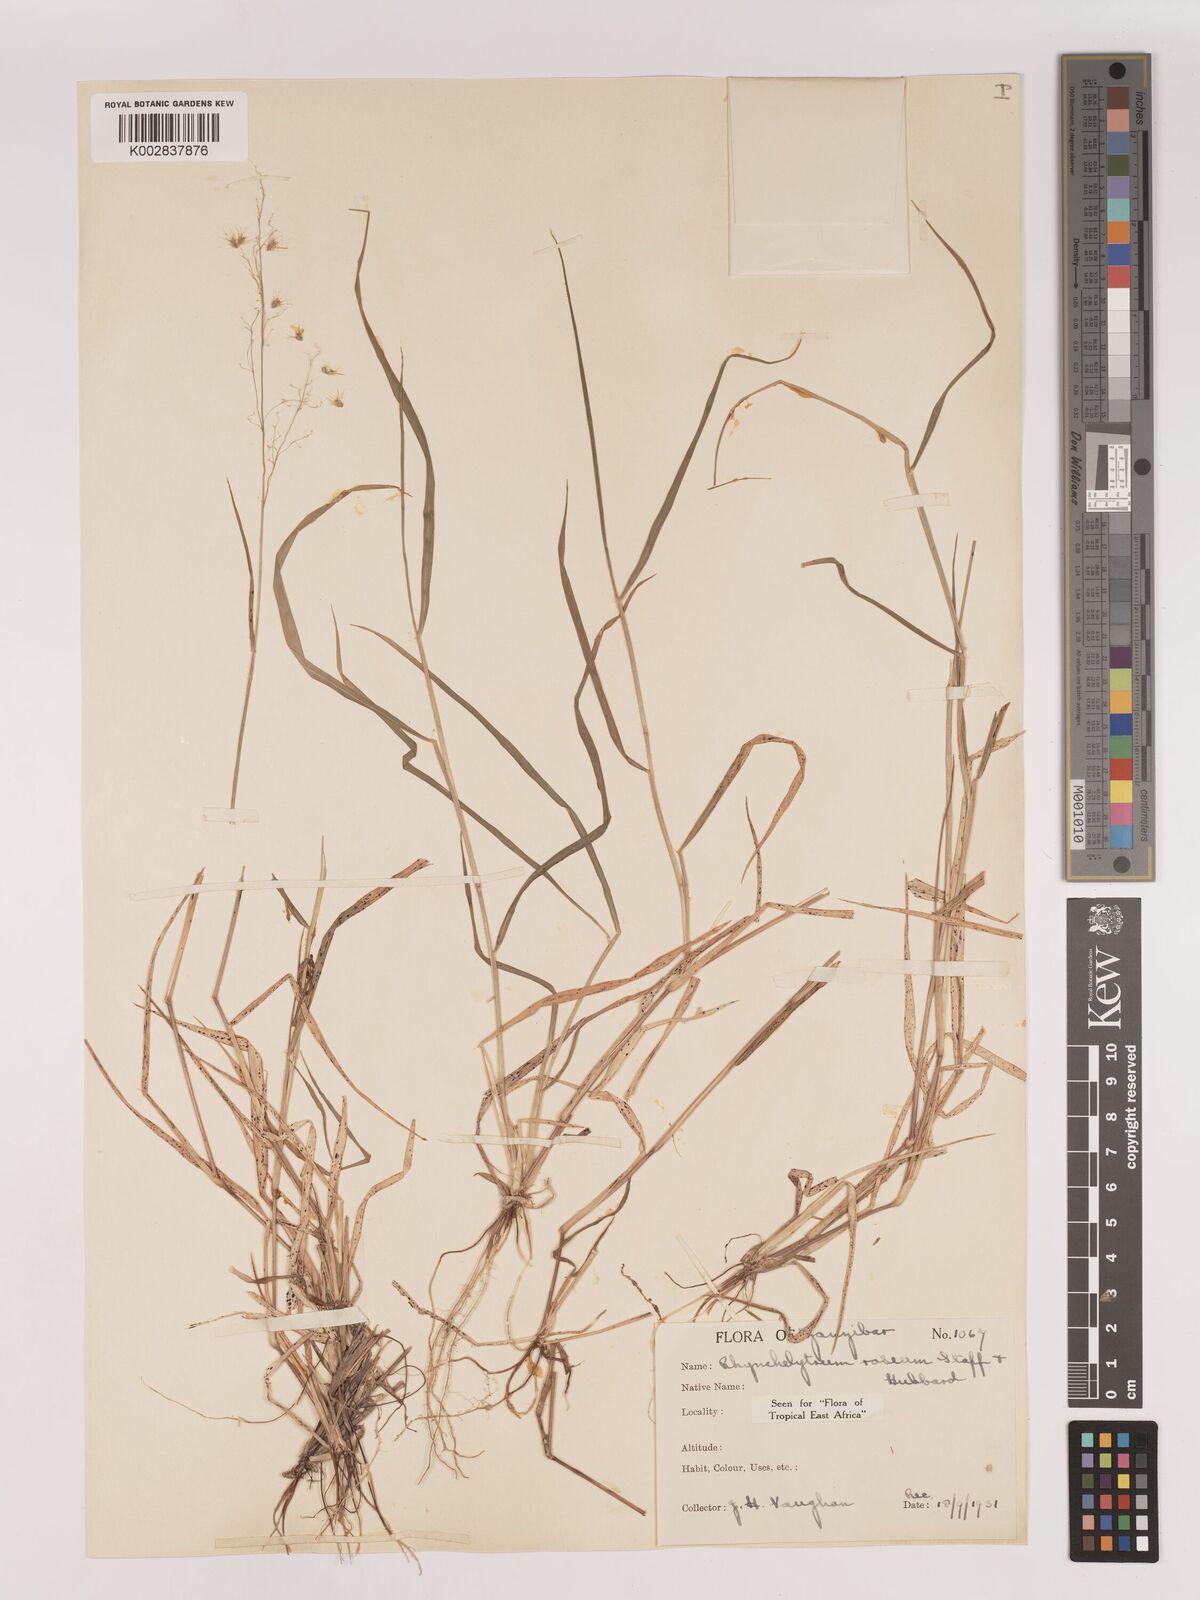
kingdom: Plantae
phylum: Tracheophyta
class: Liliopsida
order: Poales
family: Poaceae
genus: Melinis
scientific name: Melinis repens
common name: Rose natal grass
